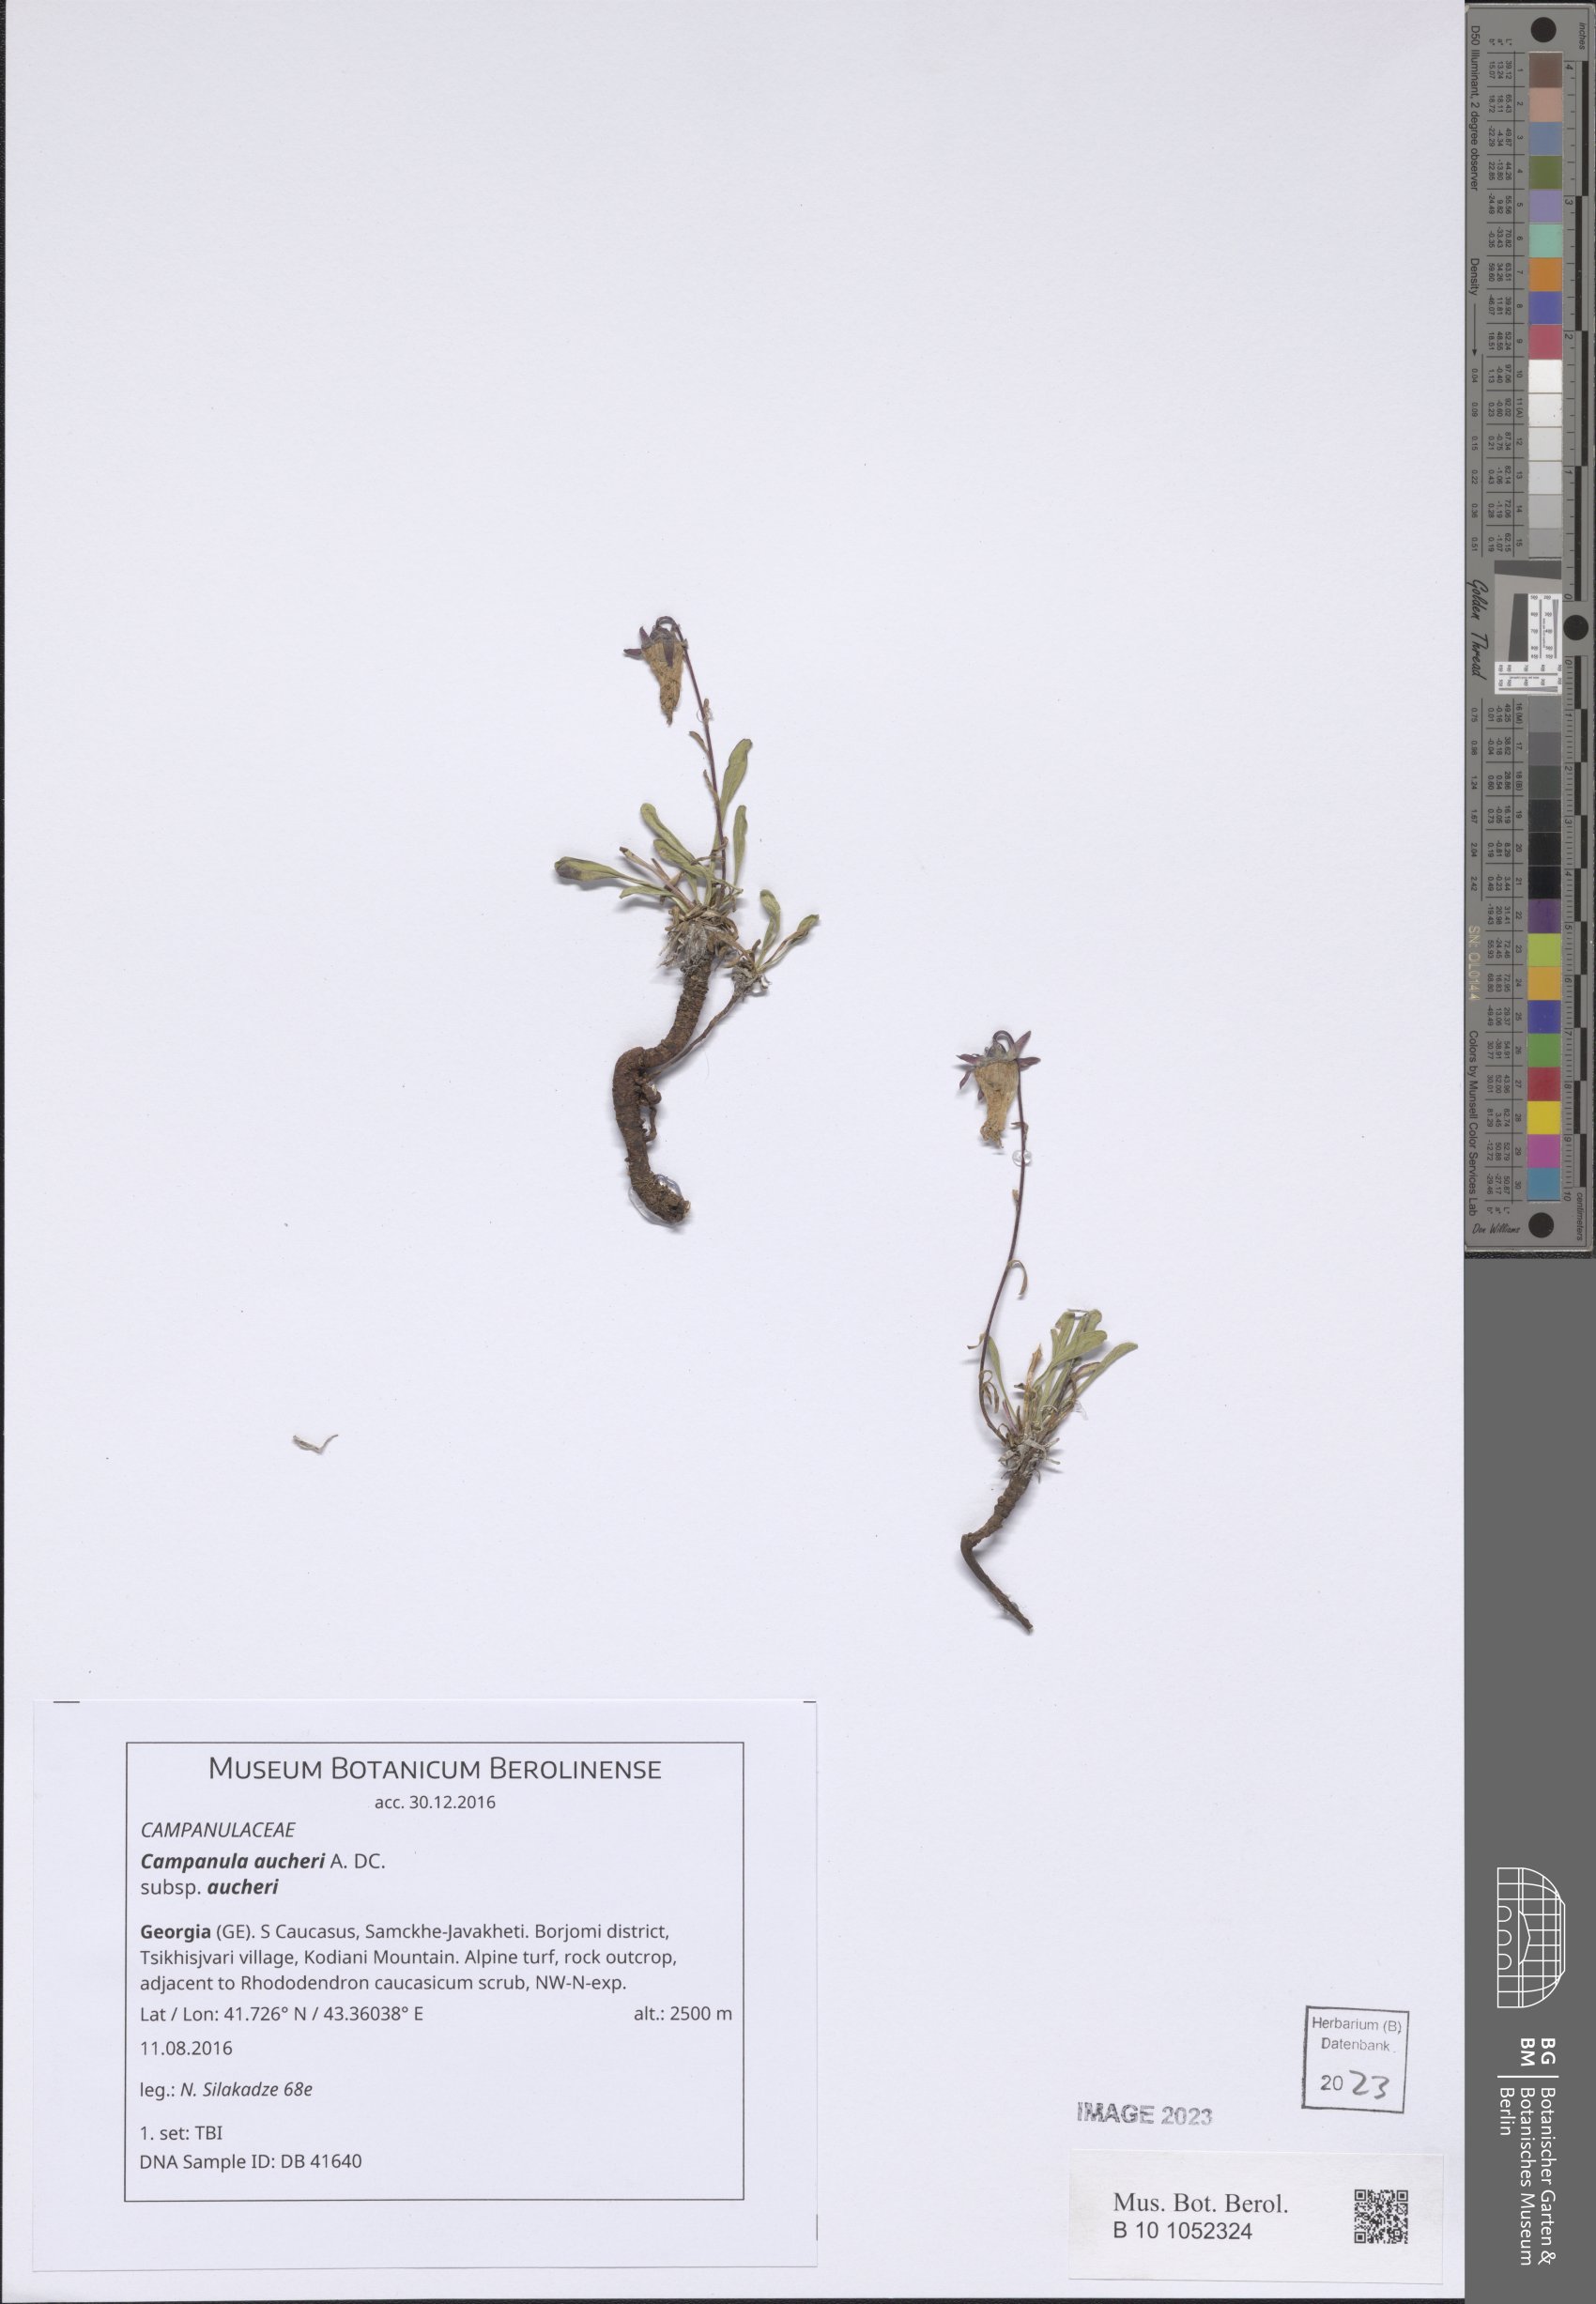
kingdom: Plantae
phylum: Tracheophyta
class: Magnoliopsida
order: Asterales
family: Campanulaceae
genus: Campanula
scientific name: Campanula saxifraga
